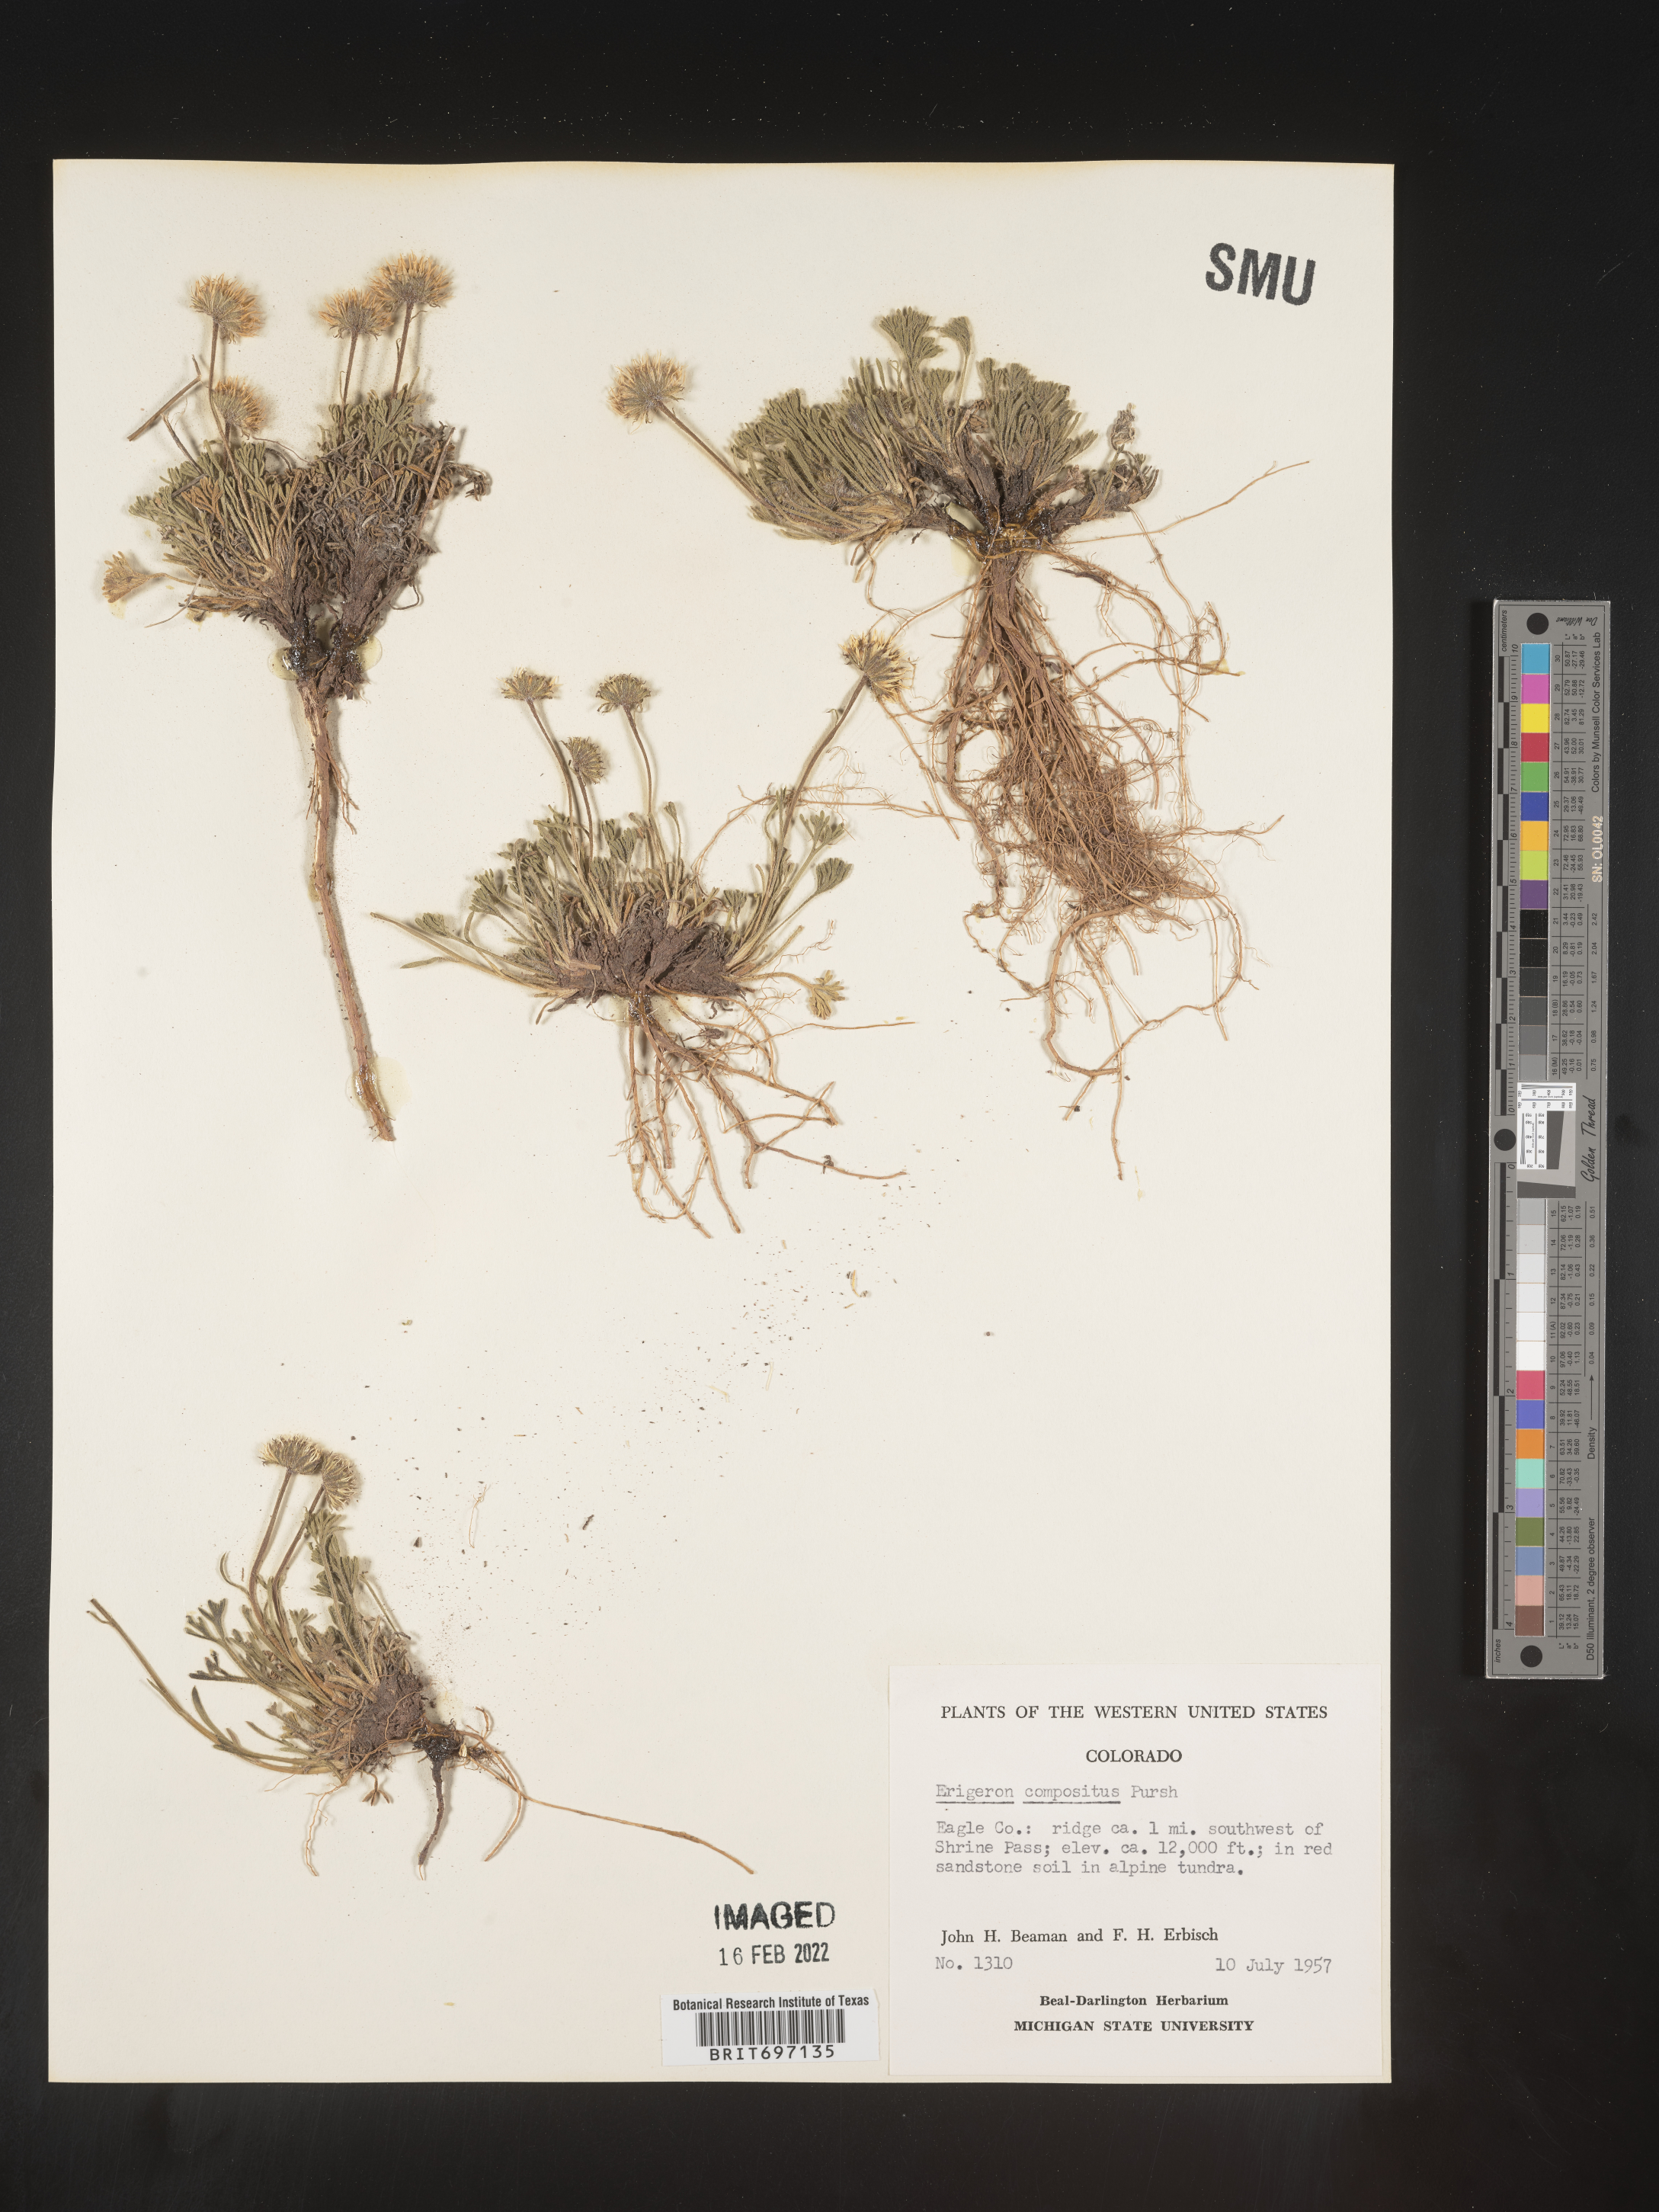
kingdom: Plantae
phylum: Tracheophyta
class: Magnoliopsida
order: Asterales
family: Asteraceae
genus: Erigeron
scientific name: Erigeron compositus
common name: Dwarf mountain fleabane
